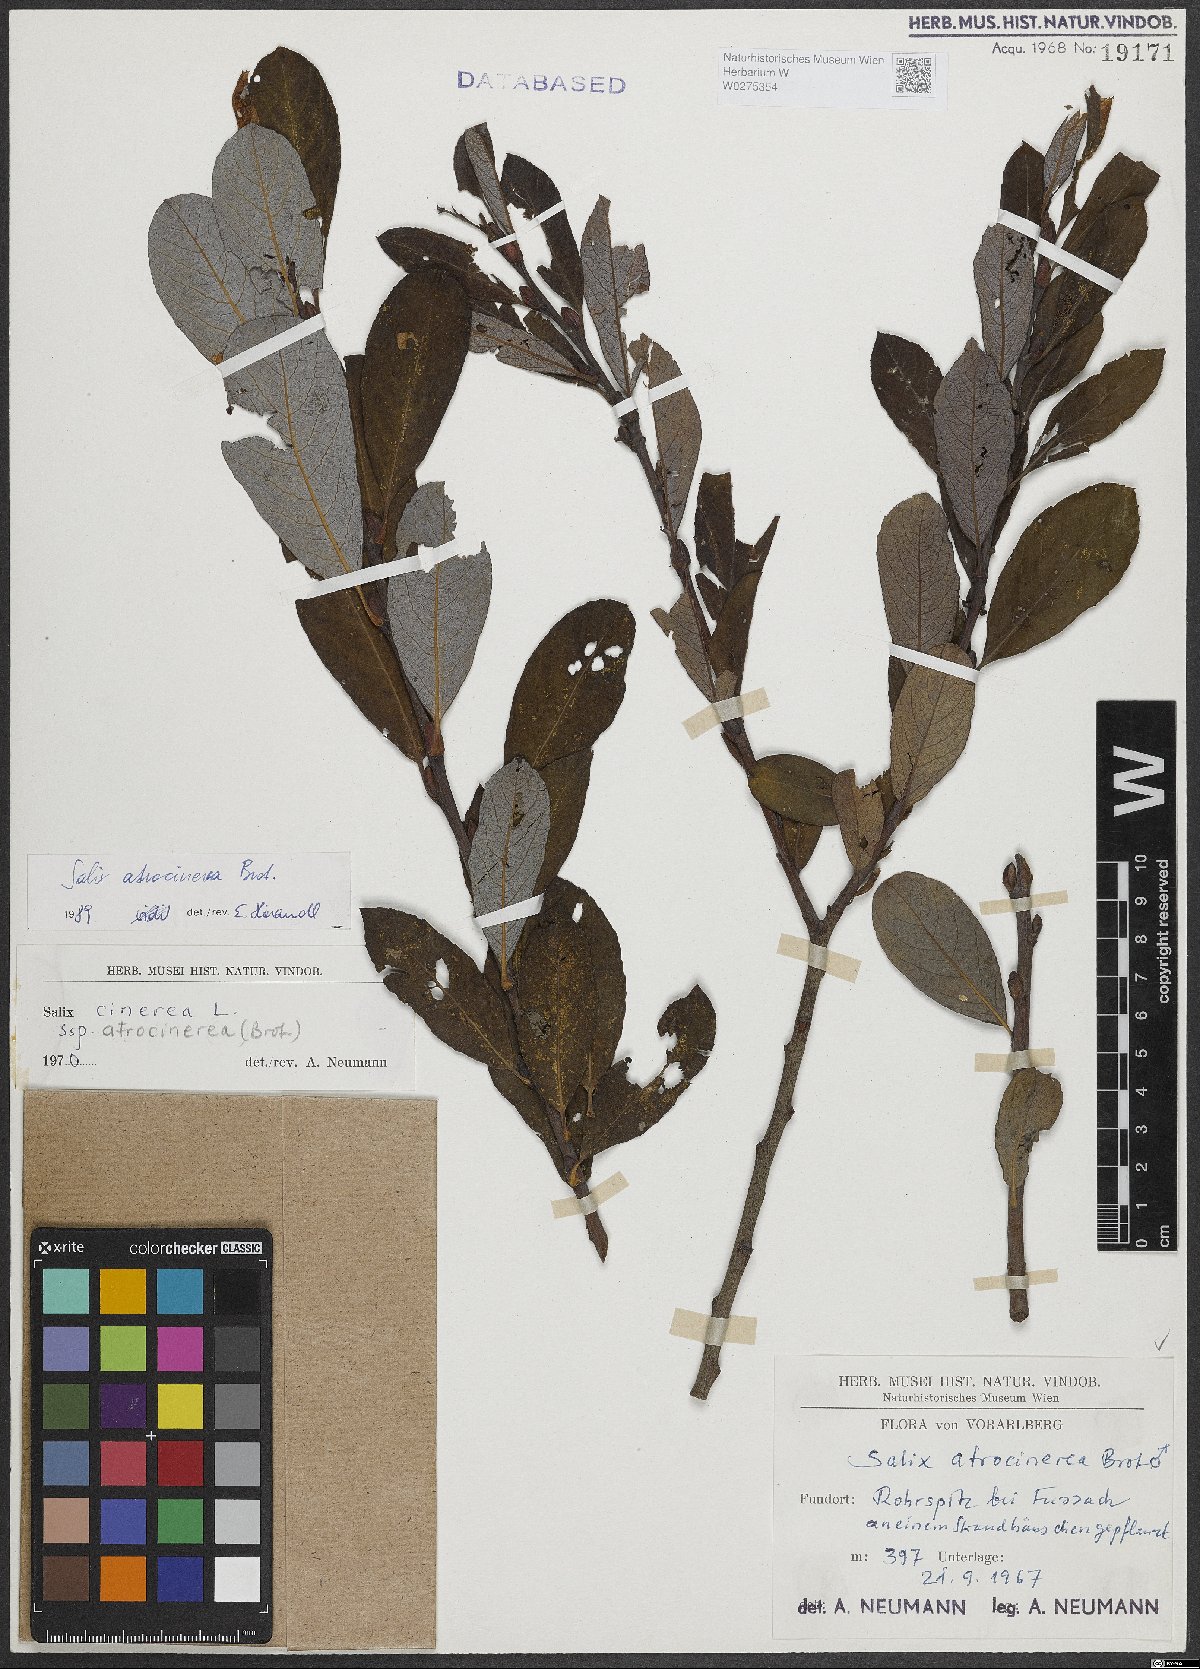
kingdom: Plantae
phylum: Tracheophyta
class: Magnoliopsida
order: Malpighiales
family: Salicaceae
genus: Salix
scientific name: Salix atrocinerea
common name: Rusty willow
